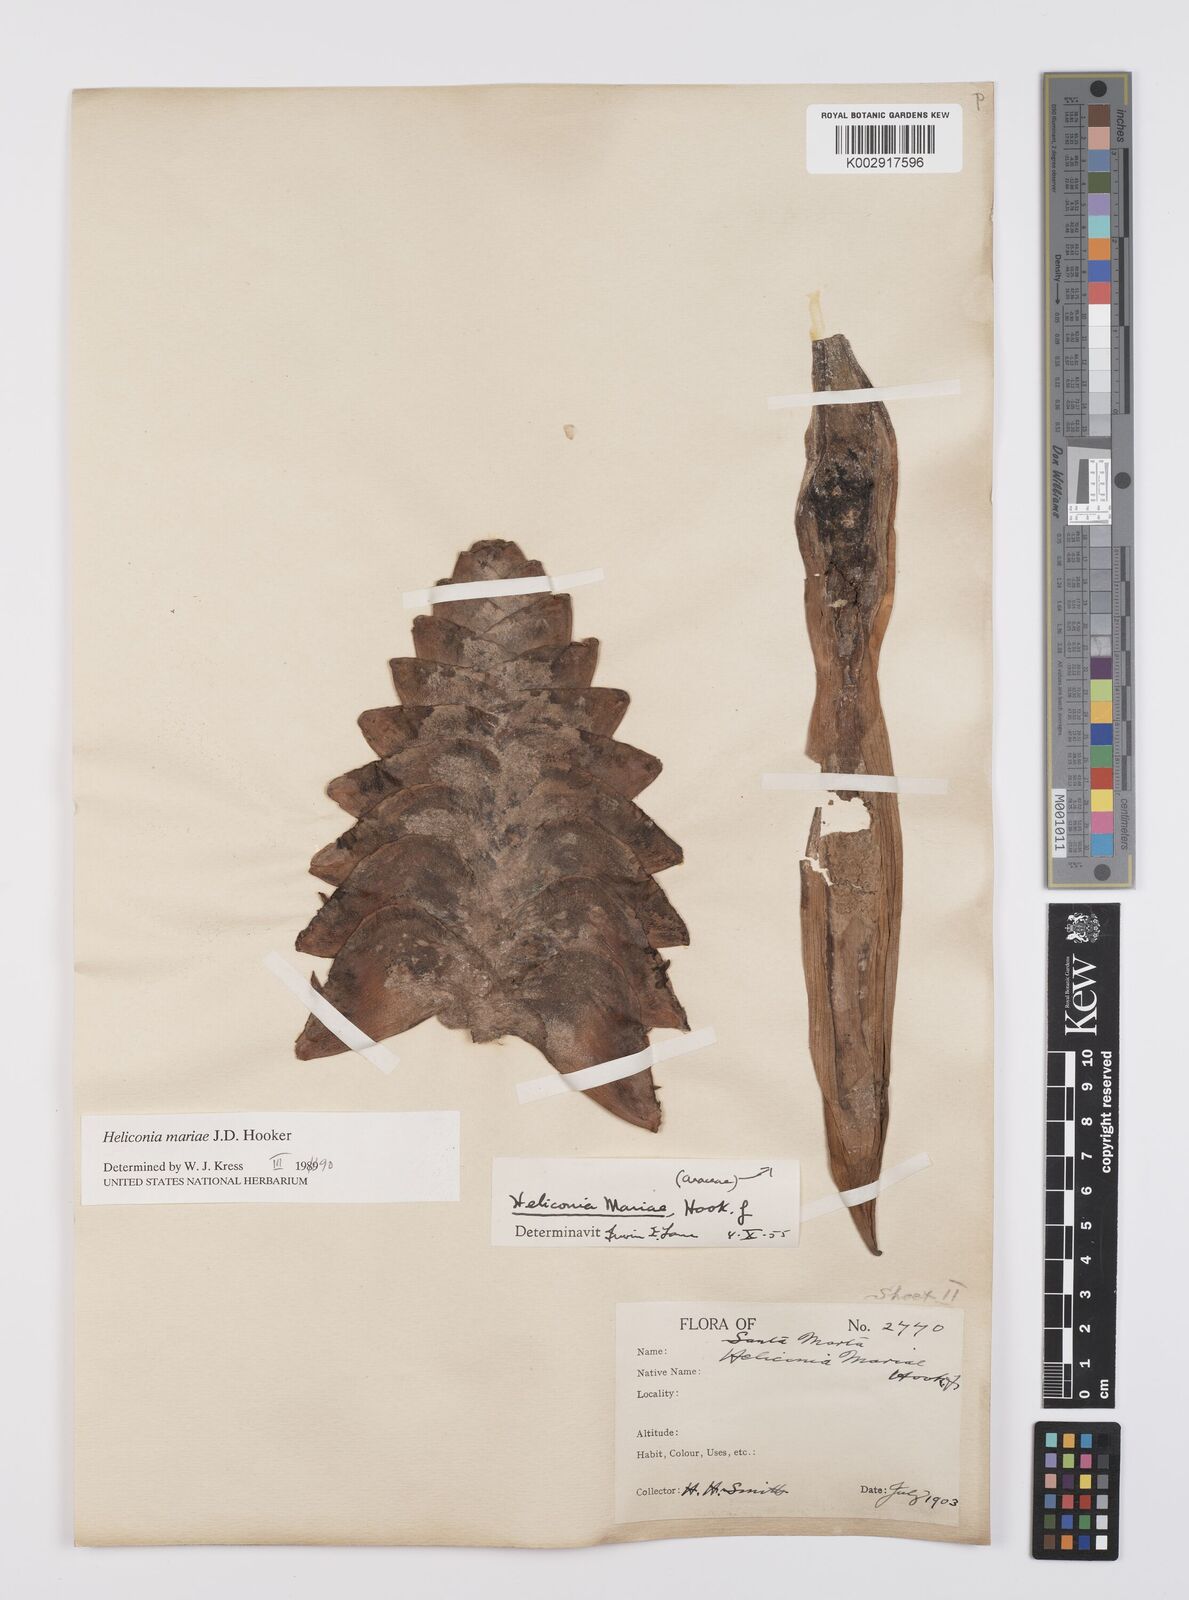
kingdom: Plantae
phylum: Tracheophyta
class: Liliopsida
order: Zingiberales
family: Heliconiaceae
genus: Heliconia
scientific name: Heliconia mariae
